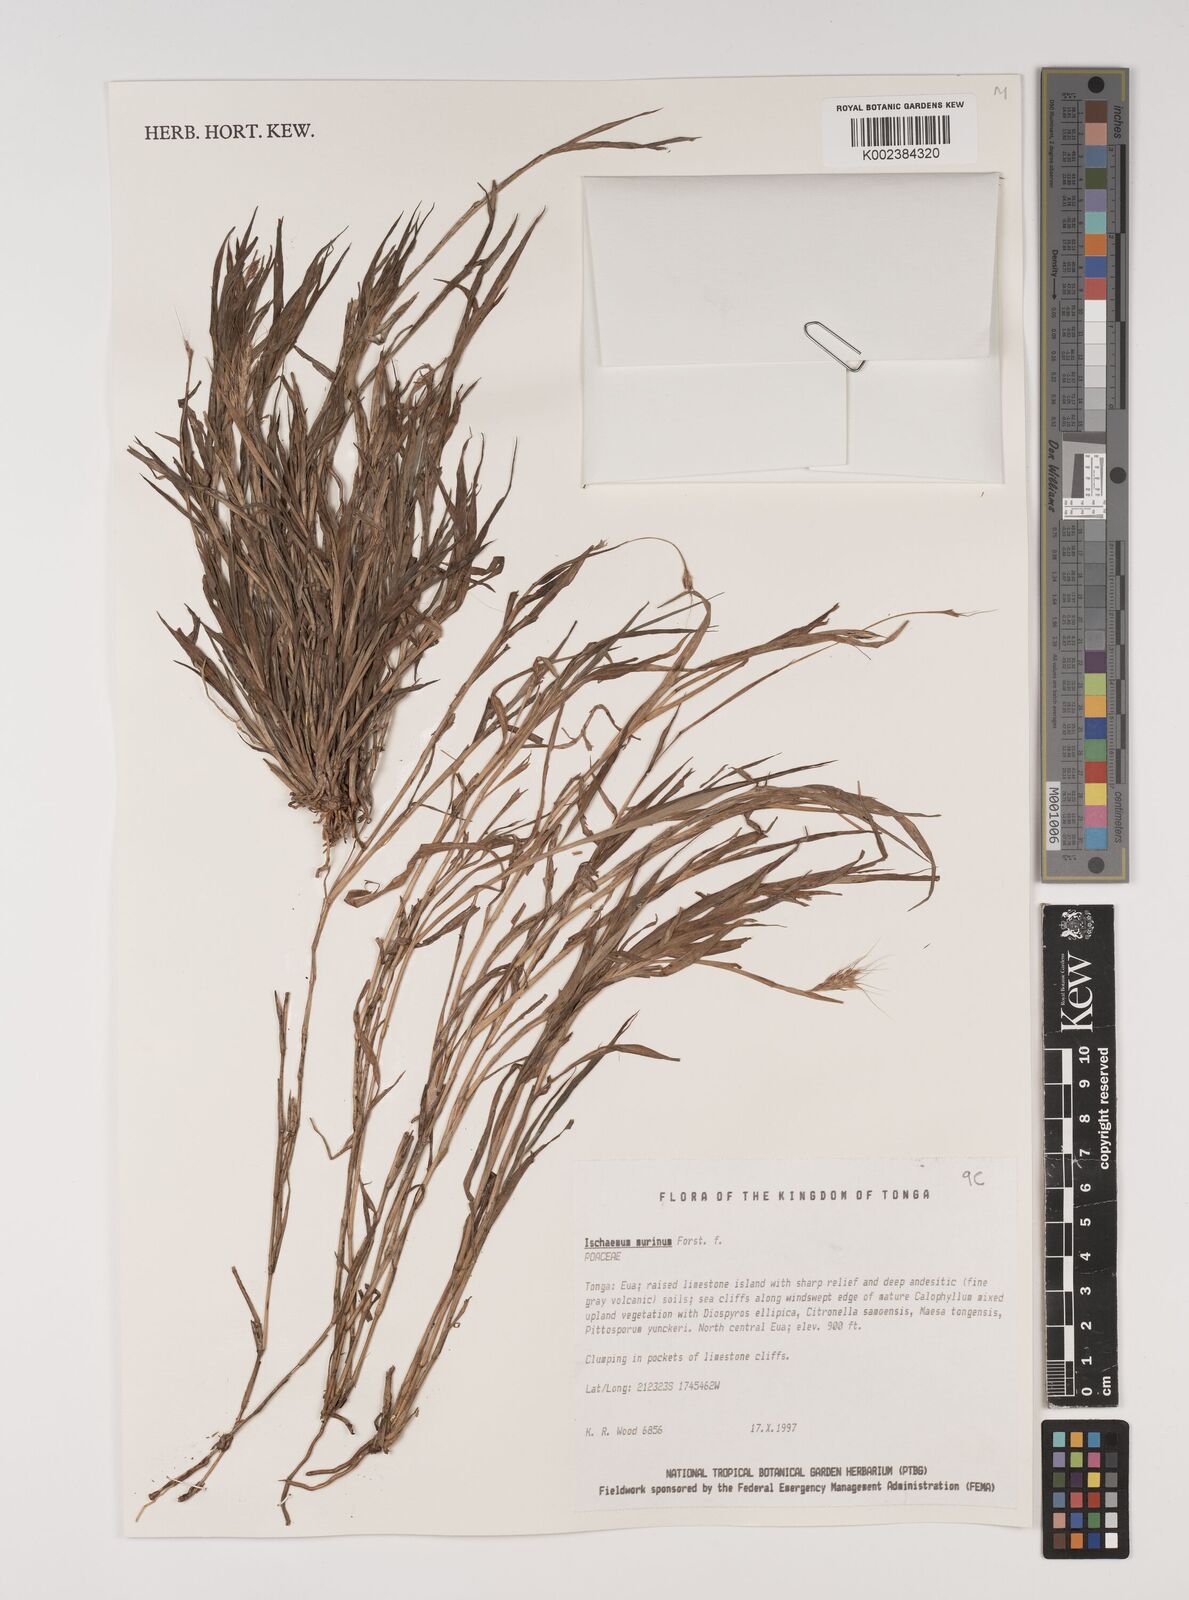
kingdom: Plantae
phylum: Tracheophyta
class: Liliopsida
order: Poales
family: Poaceae
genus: Ischaemum
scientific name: Ischaemum murinum
